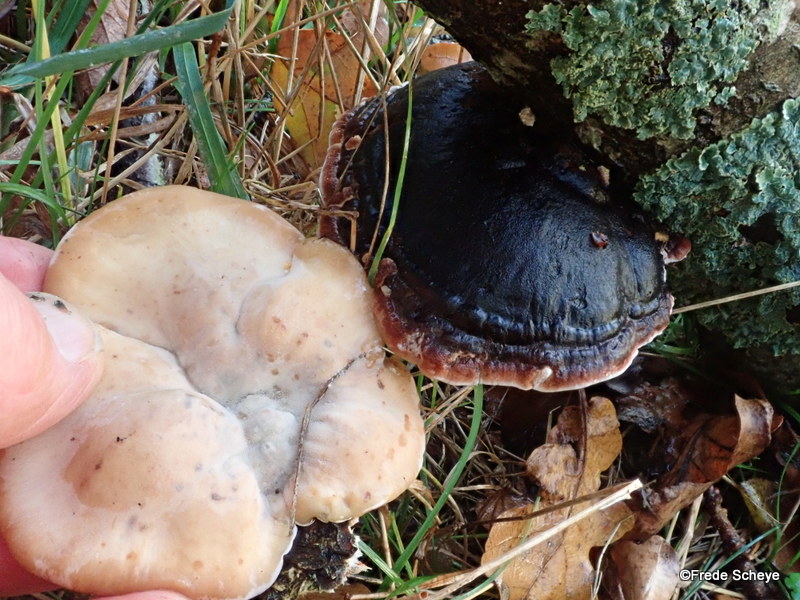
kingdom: Fungi
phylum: Basidiomycota
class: Agaricomycetes
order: Polyporales
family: Ischnodermataceae
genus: Ischnoderma
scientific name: Ischnoderma resinosum
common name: løv-tjæreporesvamp
